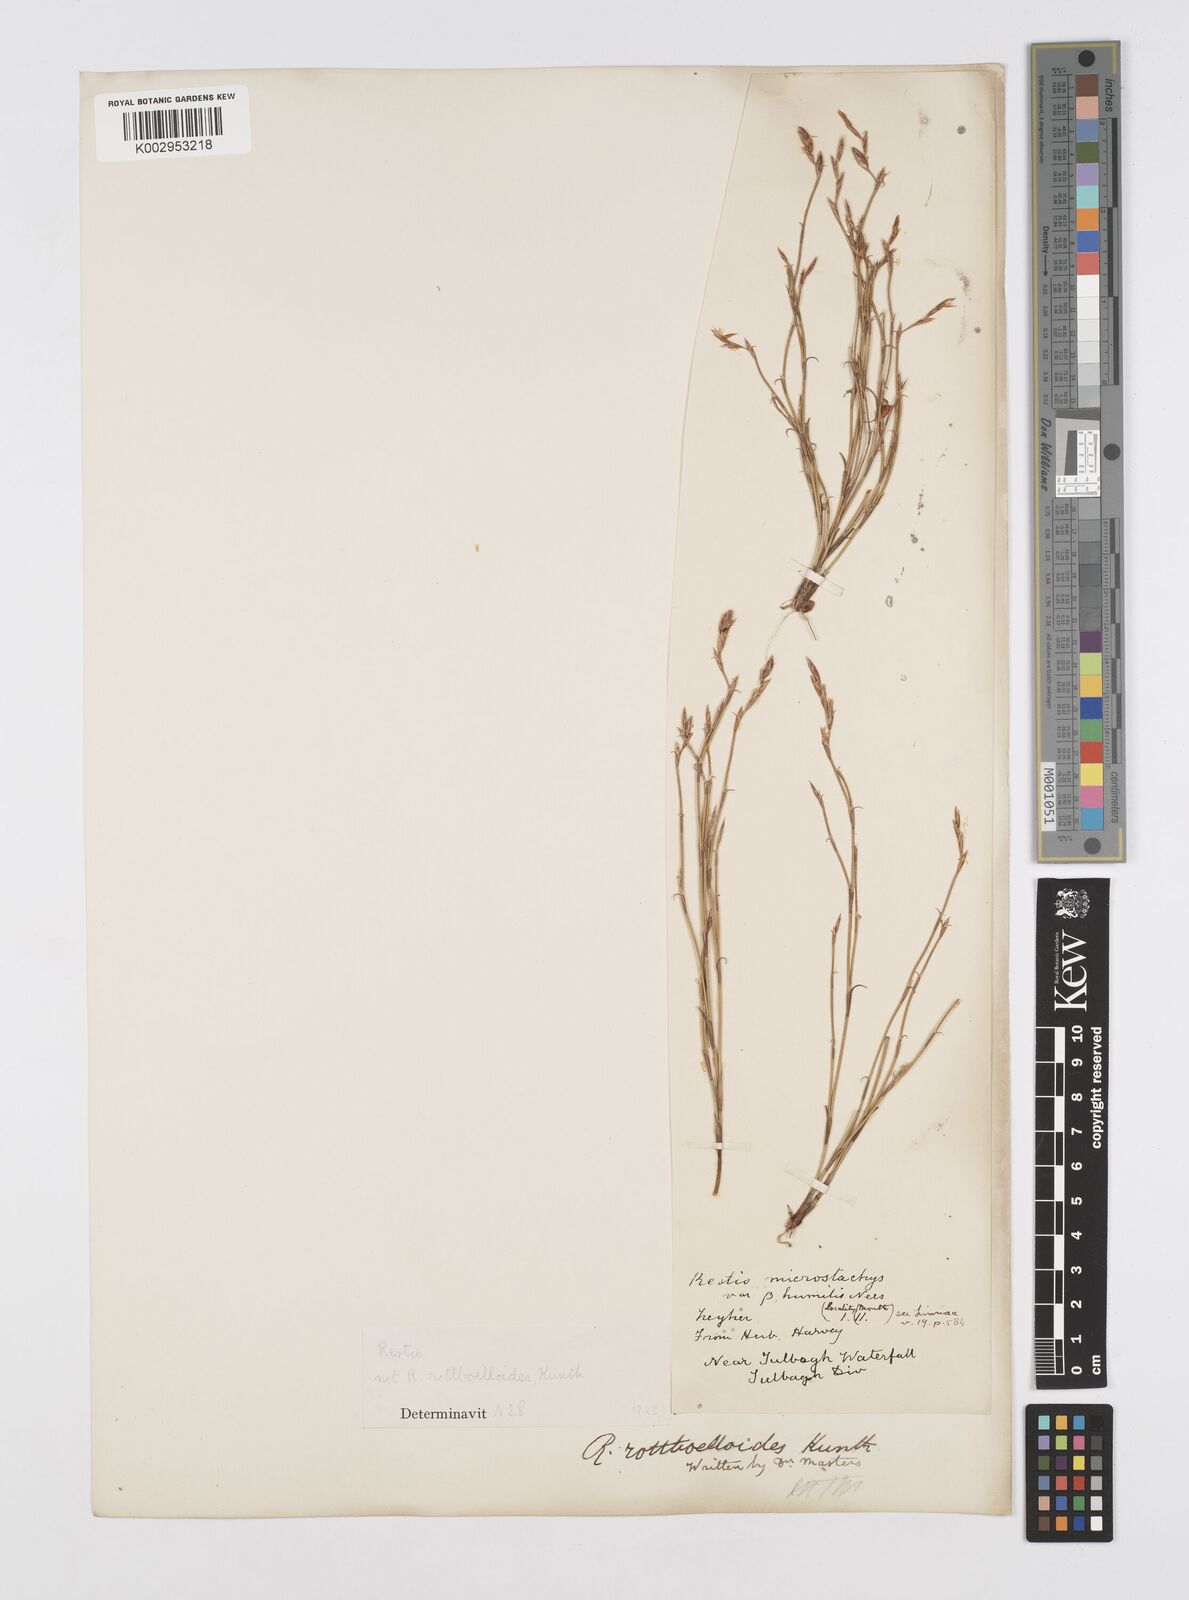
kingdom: Plantae
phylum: Tracheophyta
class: Liliopsida
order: Poales
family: Restionaceae
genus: Restio
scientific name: Restio
